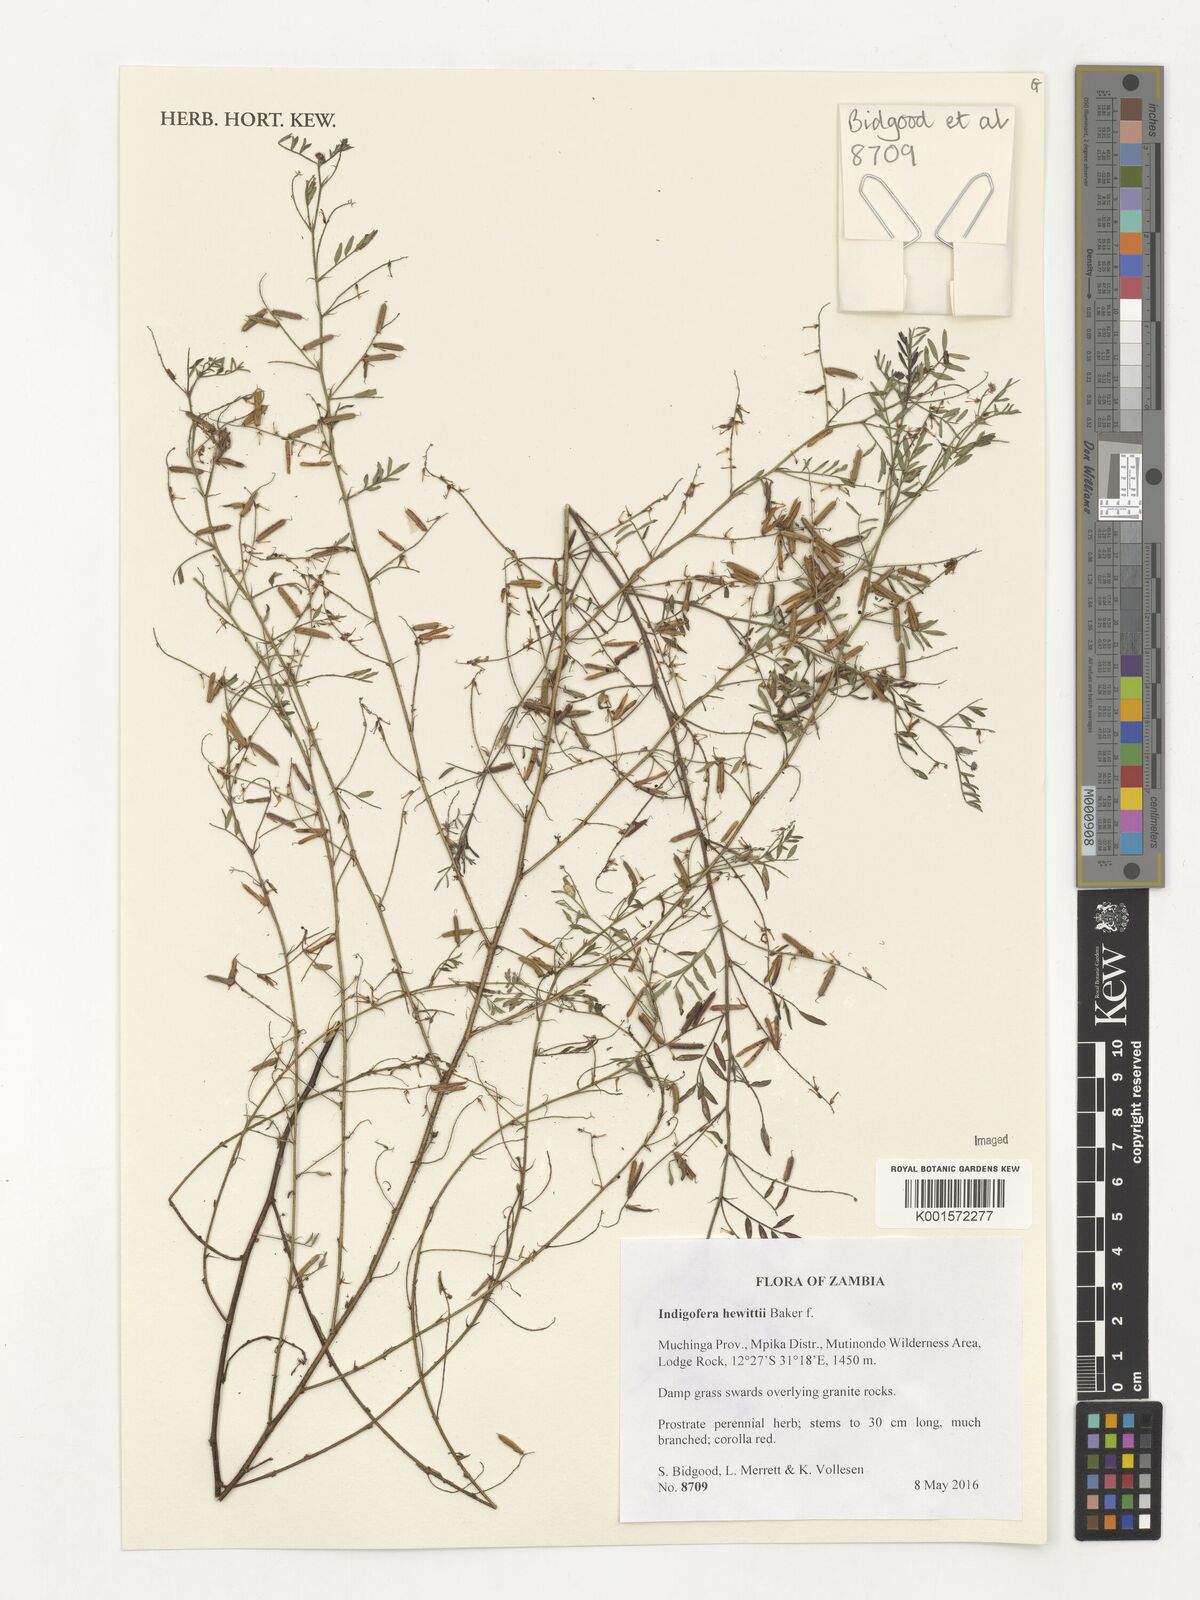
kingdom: Plantae
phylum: Tracheophyta
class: Magnoliopsida
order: Fabales
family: Fabaceae
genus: Indigofera
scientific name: Indigofera hewittii
